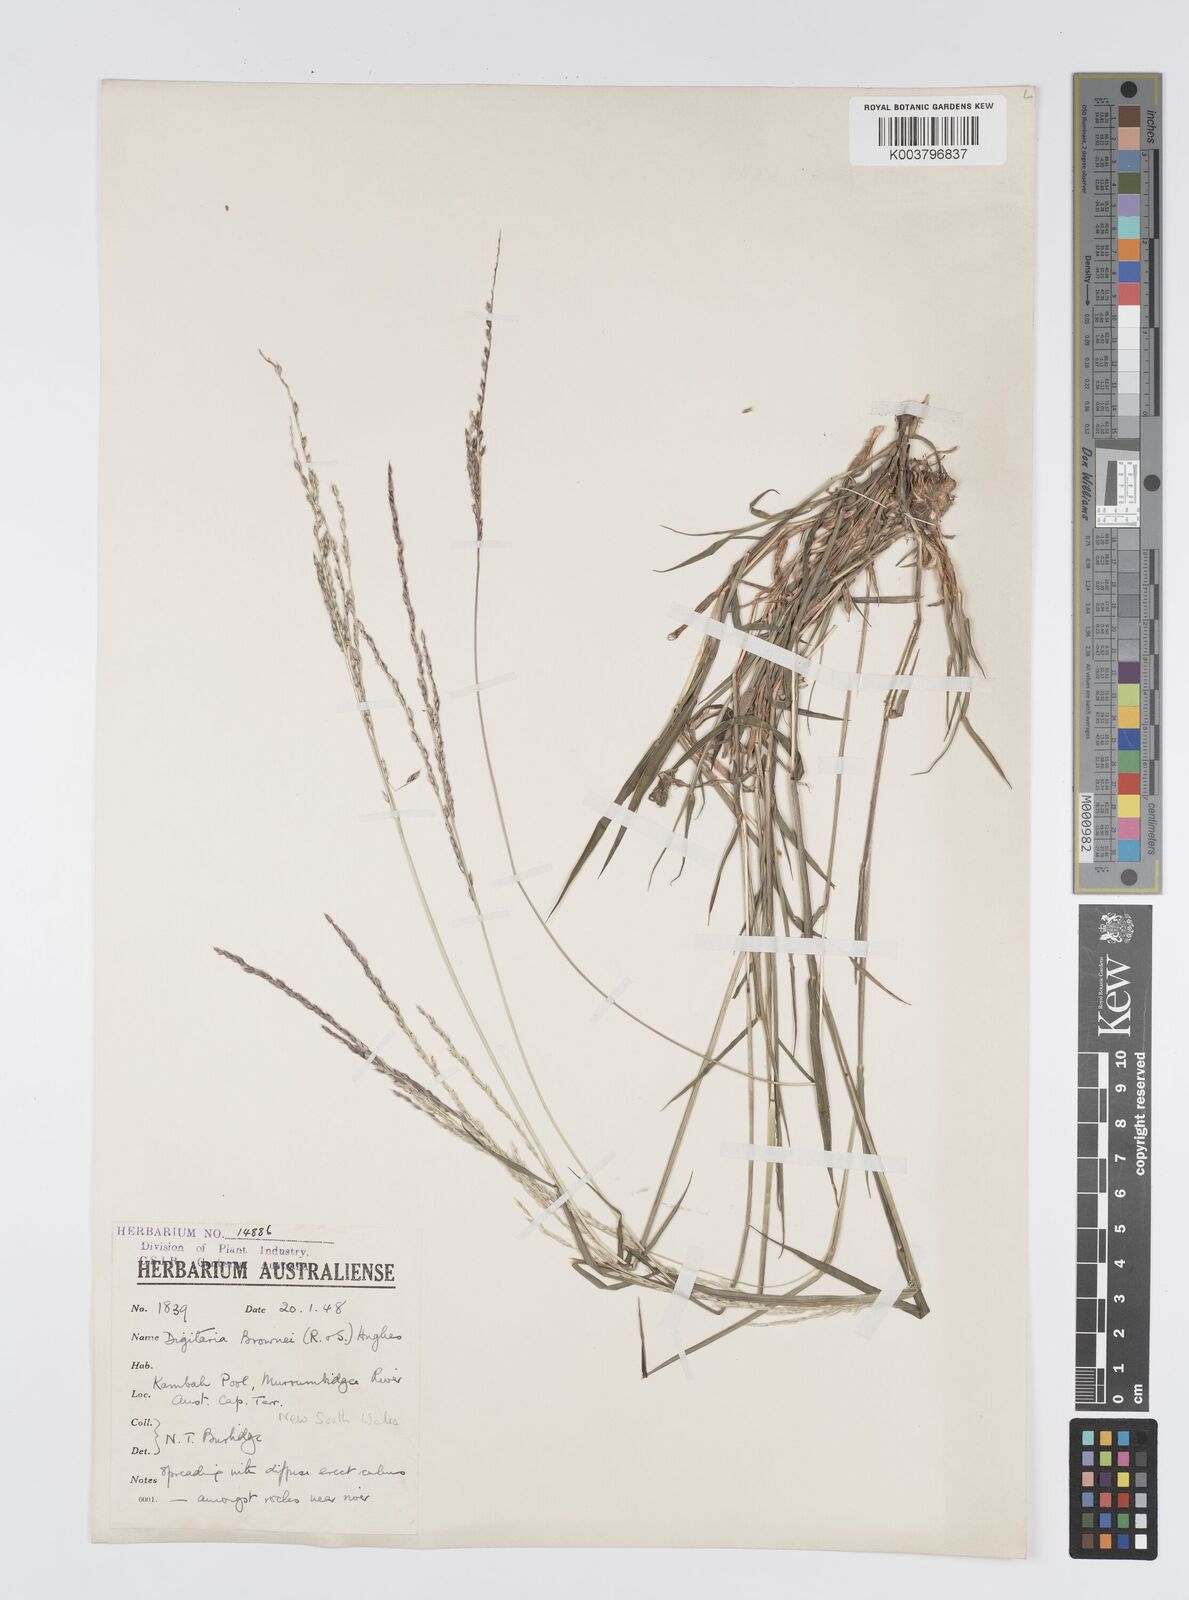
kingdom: Plantae
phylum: Tracheophyta
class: Liliopsida
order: Poales
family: Poaceae
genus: Digitaria
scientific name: Digitaria brownii
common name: Cotton grass
